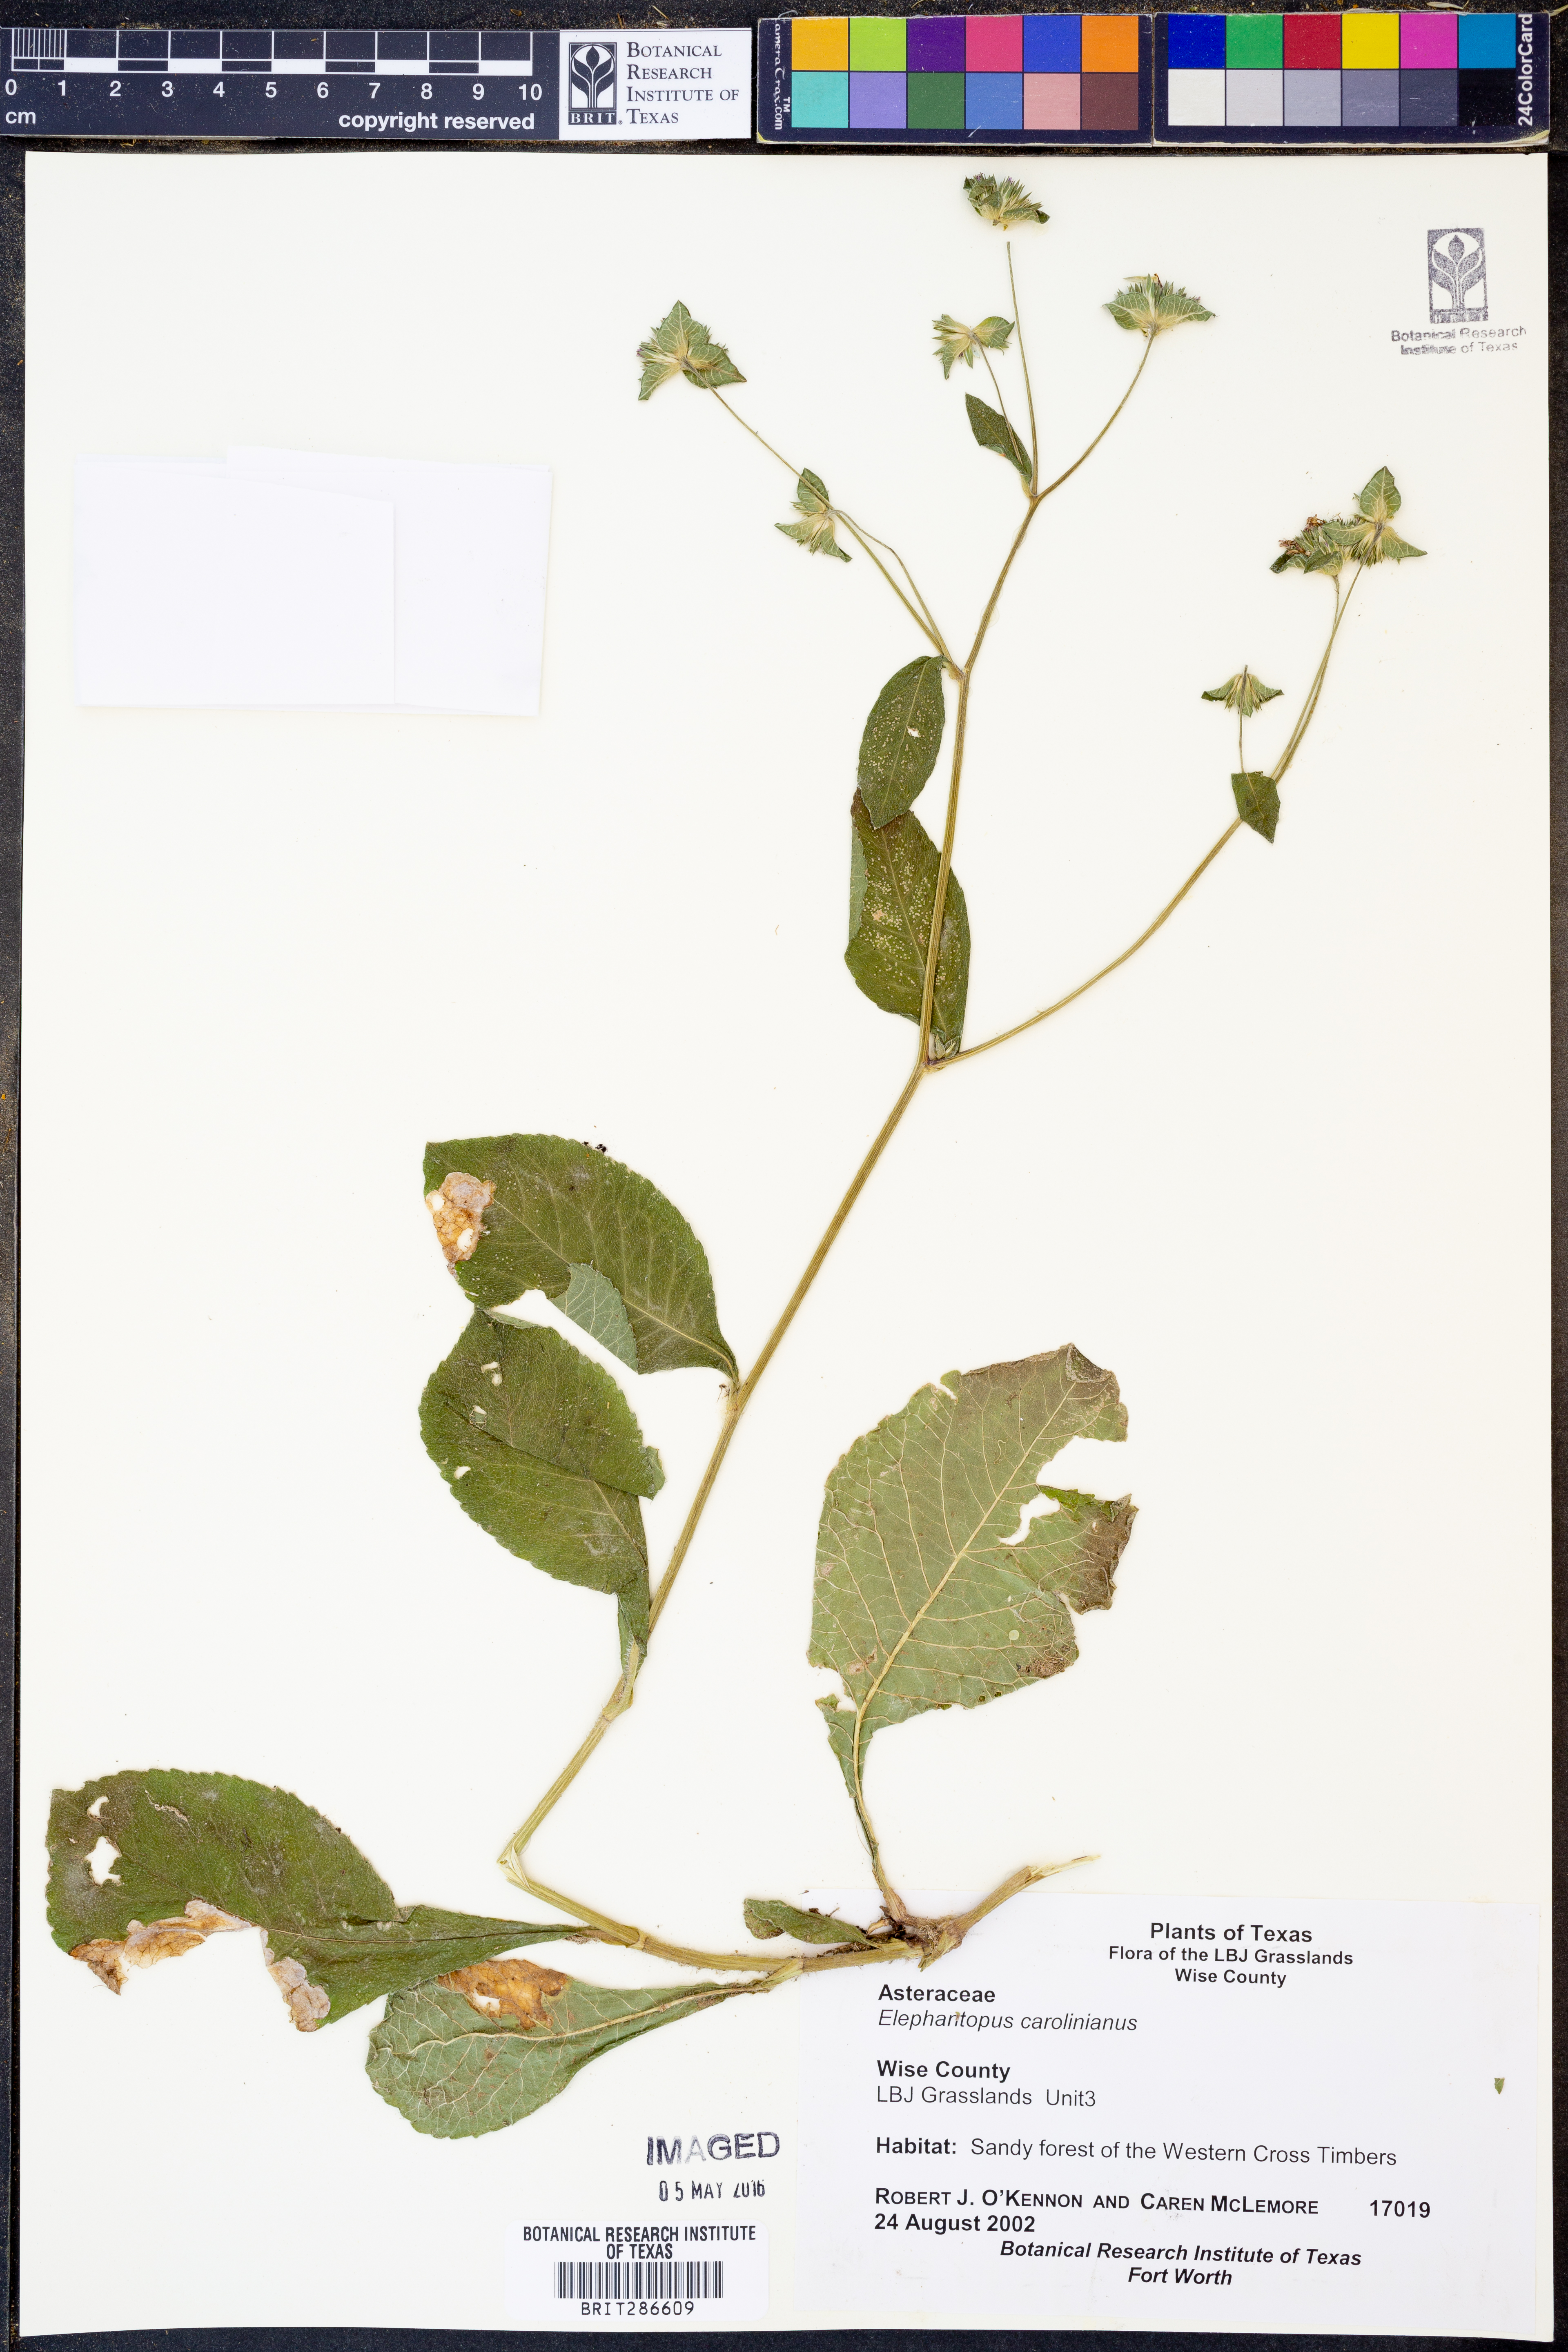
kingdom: Plantae
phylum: Tracheophyta
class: Magnoliopsida
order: Asterales
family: Asteraceae
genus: Elephantopus
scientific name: Elephantopus carolinianus
